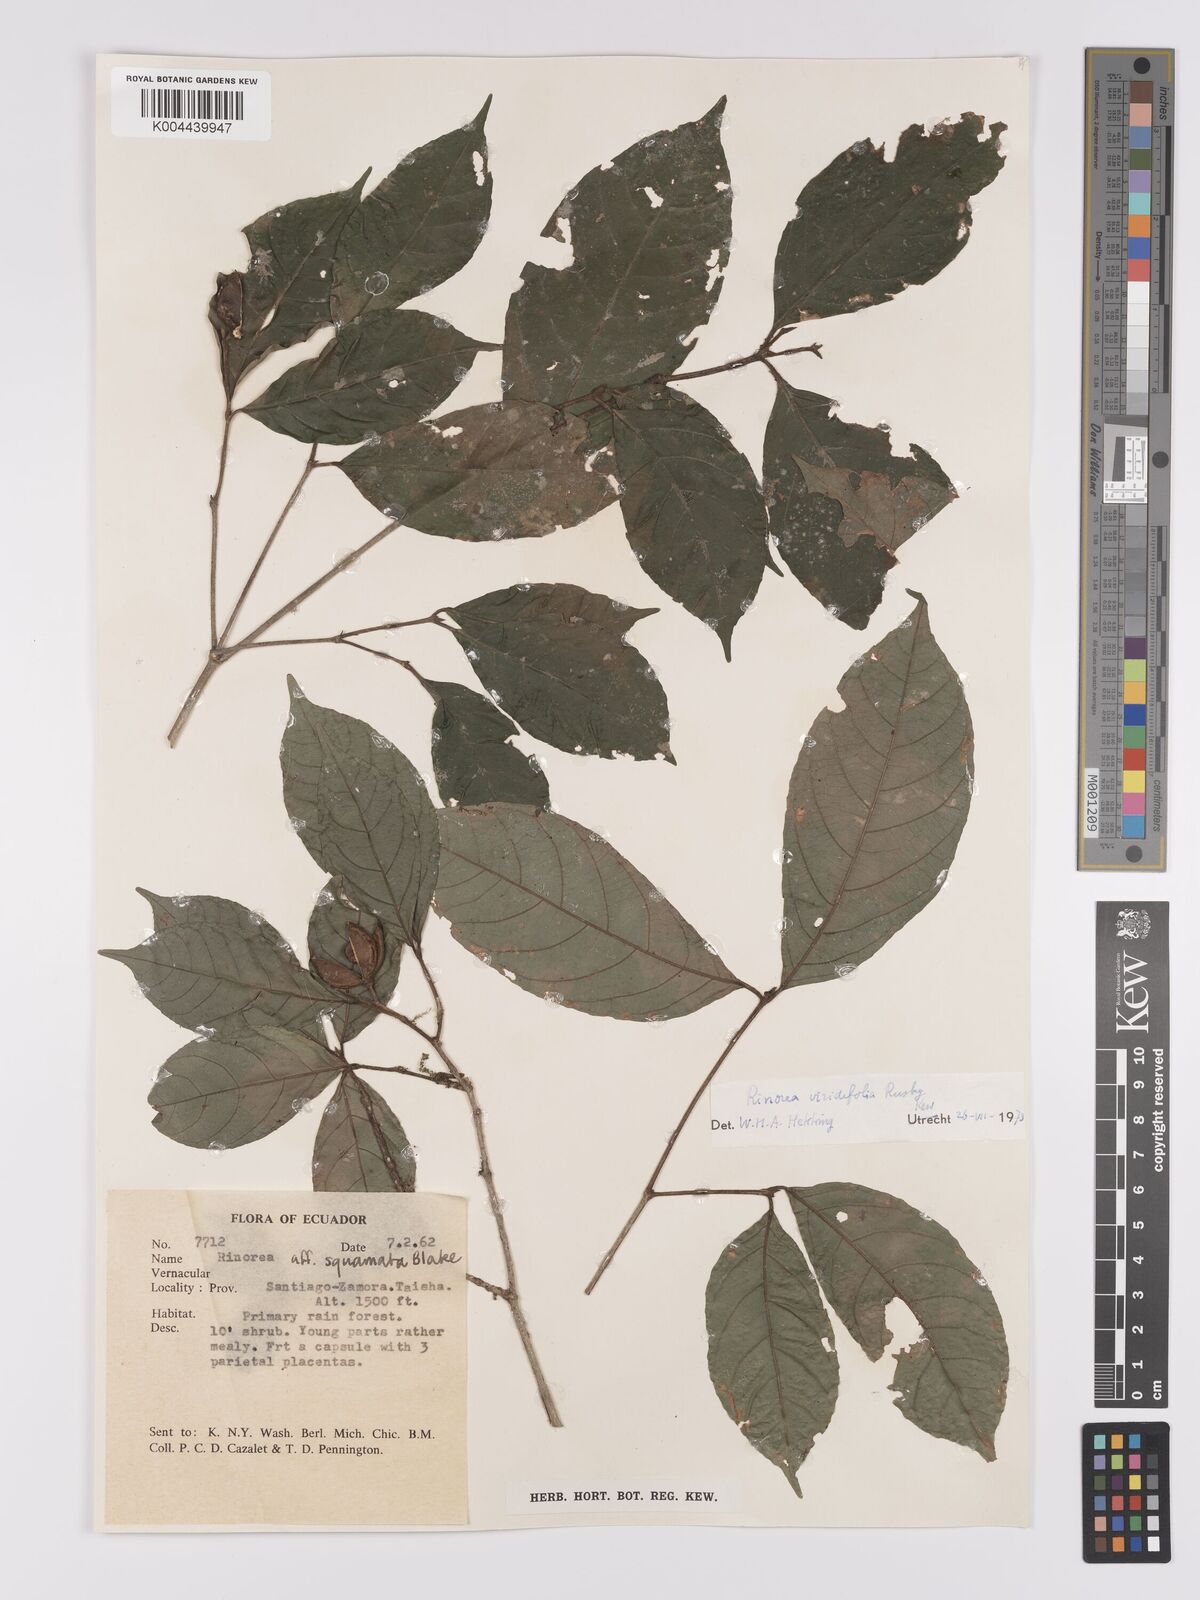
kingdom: Plantae
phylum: Tracheophyta
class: Magnoliopsida
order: Malpighiales
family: Violaceae
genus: Rinorea
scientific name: Rinorea viridifolia
